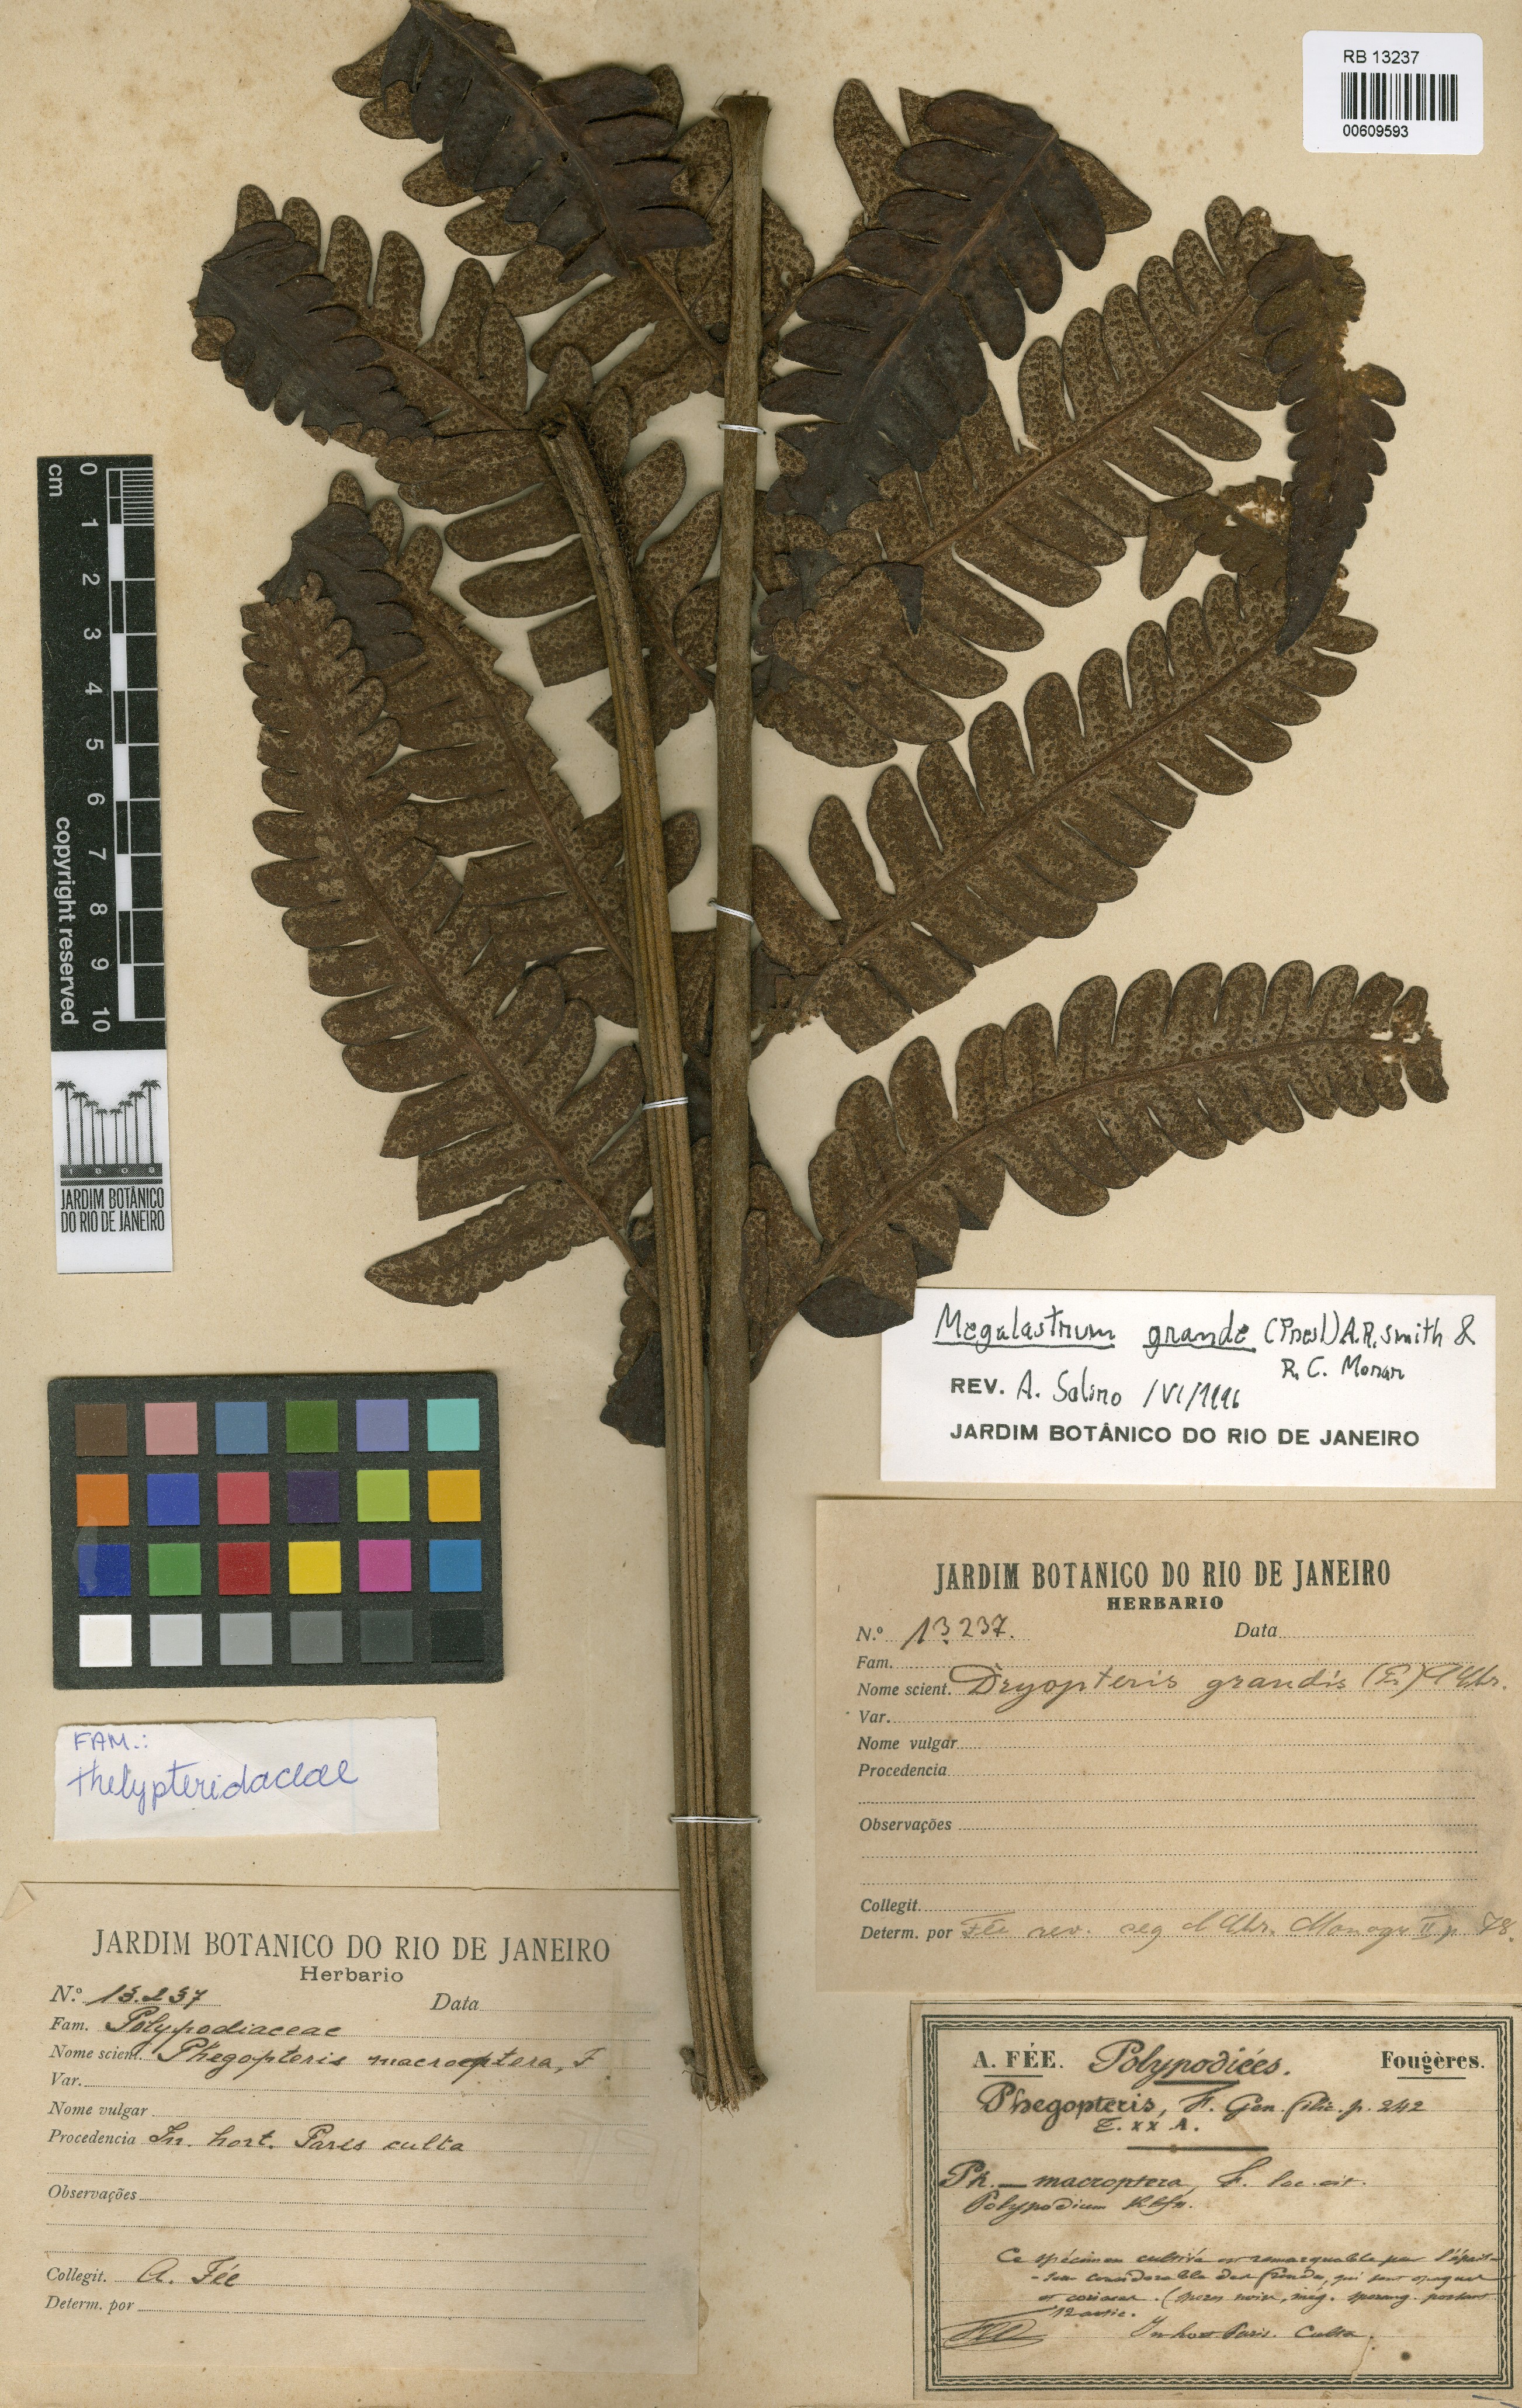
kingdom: Plantae
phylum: Tracheophyta
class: Polypodiopsida
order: Polypodiales
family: Dryopteridaceae
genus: Megalastrum
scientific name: Megalastrum grande
